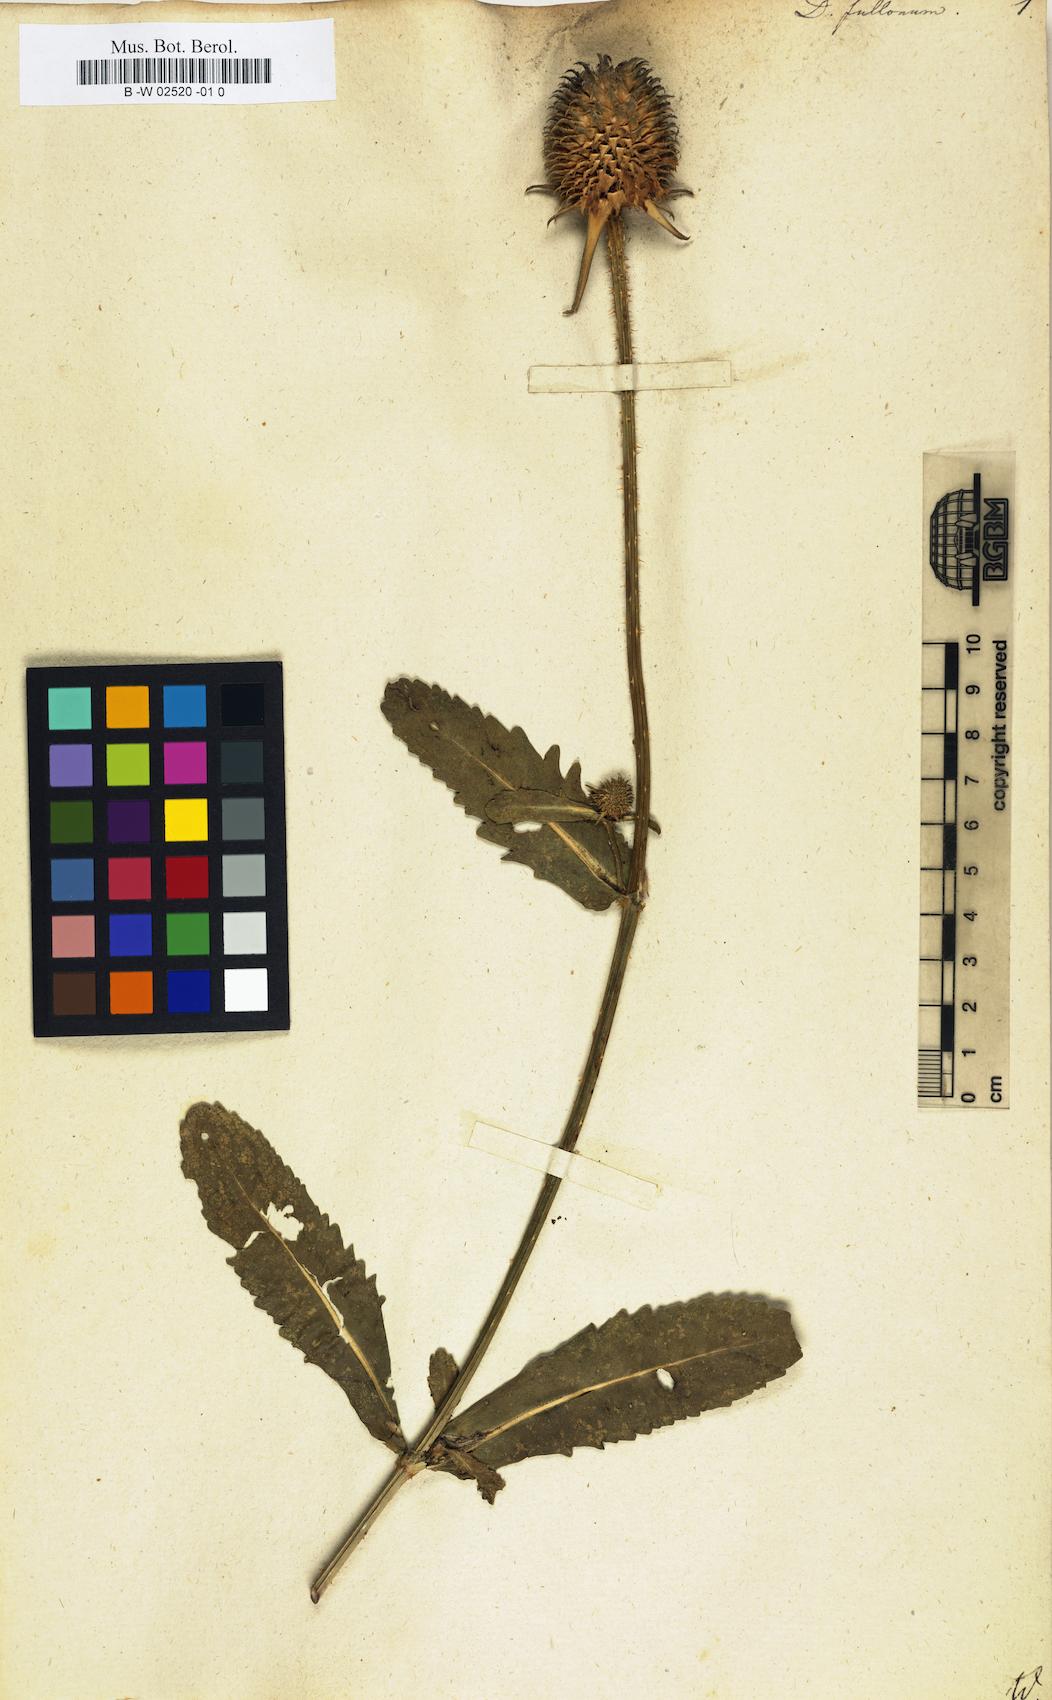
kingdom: Plantae
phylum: Tracheophyta
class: Magnoliopsida
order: Dipsacales
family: Caprifoliaceae
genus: Dipsacus
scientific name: Dipsacus fullonum
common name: Teasel
